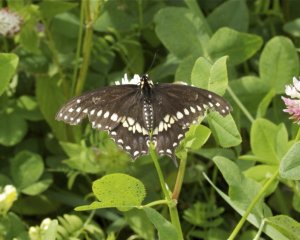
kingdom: Animalia
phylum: Arthropoda
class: Insecta
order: Lepidoptera
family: Papilionidae
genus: Papilio
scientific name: Papilio polyxenes
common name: Black Swallowtail
